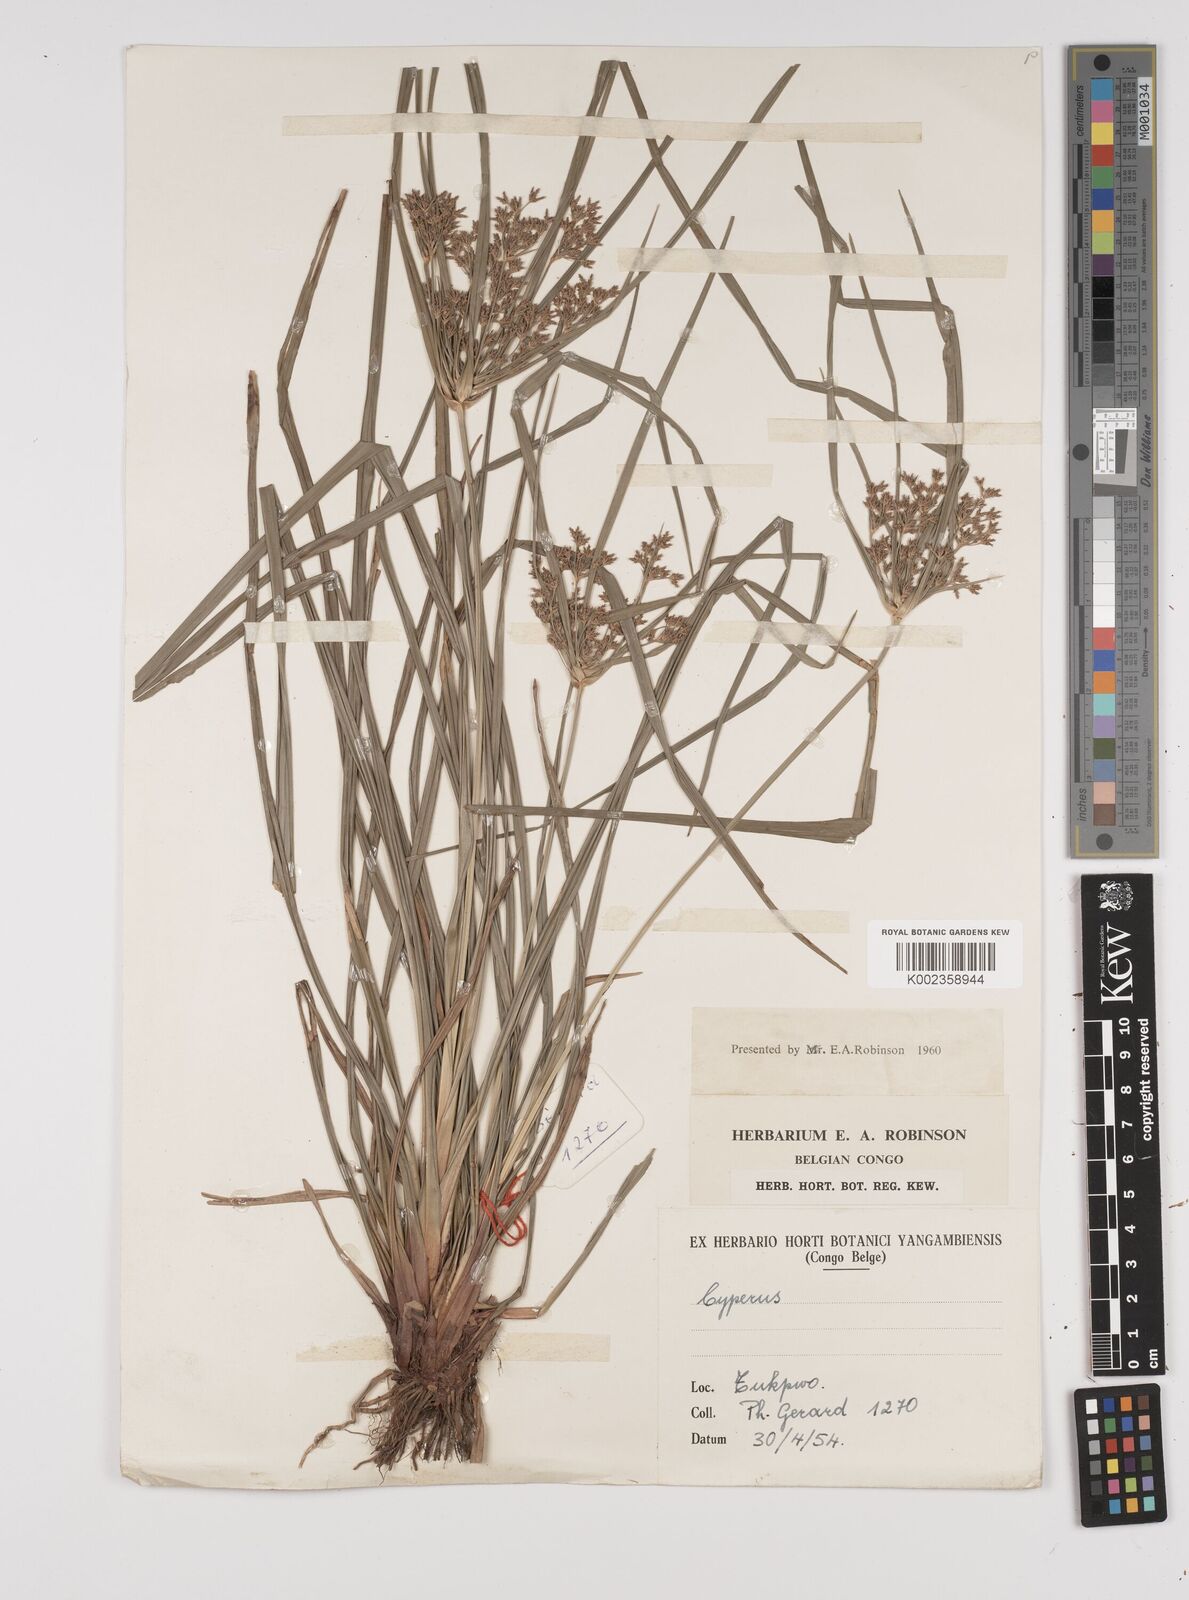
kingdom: Plantae
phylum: Tracheophyta
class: Liliopsida
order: Poales
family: Cyperaceae
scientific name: Cyperaceae
